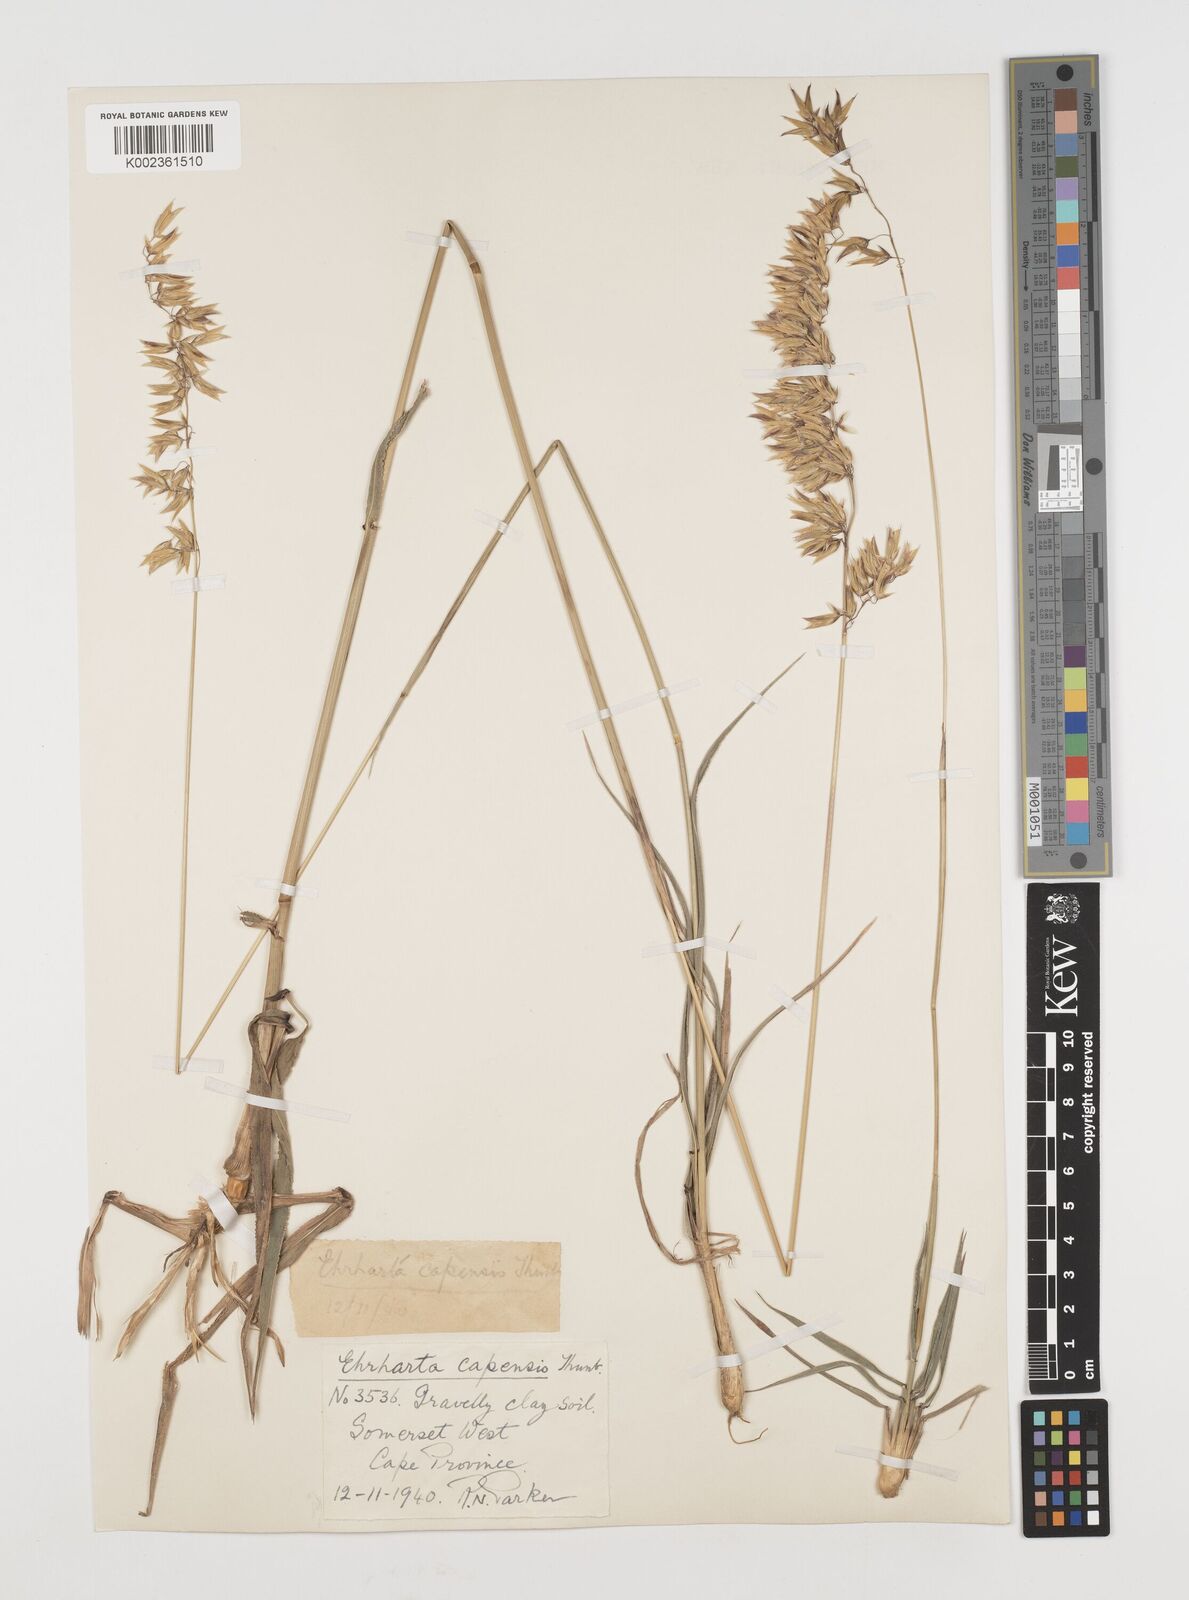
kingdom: Plantae
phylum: Tracheophyta
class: Liliopsida
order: Poales
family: Poaceae
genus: Ehrharta
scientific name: Ehrharta capensis
